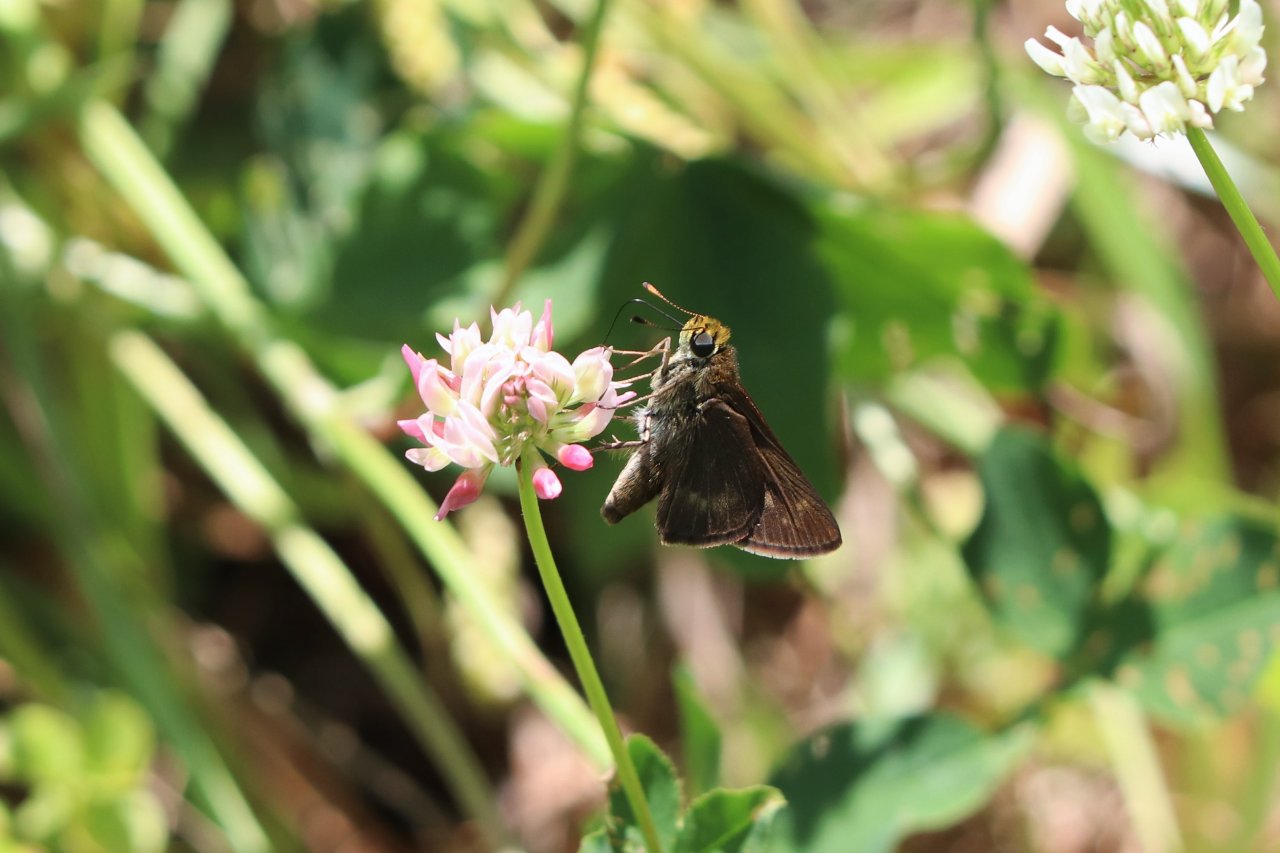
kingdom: Animalia
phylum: Arthropoda
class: Insecta
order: Lepidoptera
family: Hesperiidae
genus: Euphyes
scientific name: Euphyes vestris
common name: Dun Skipper
